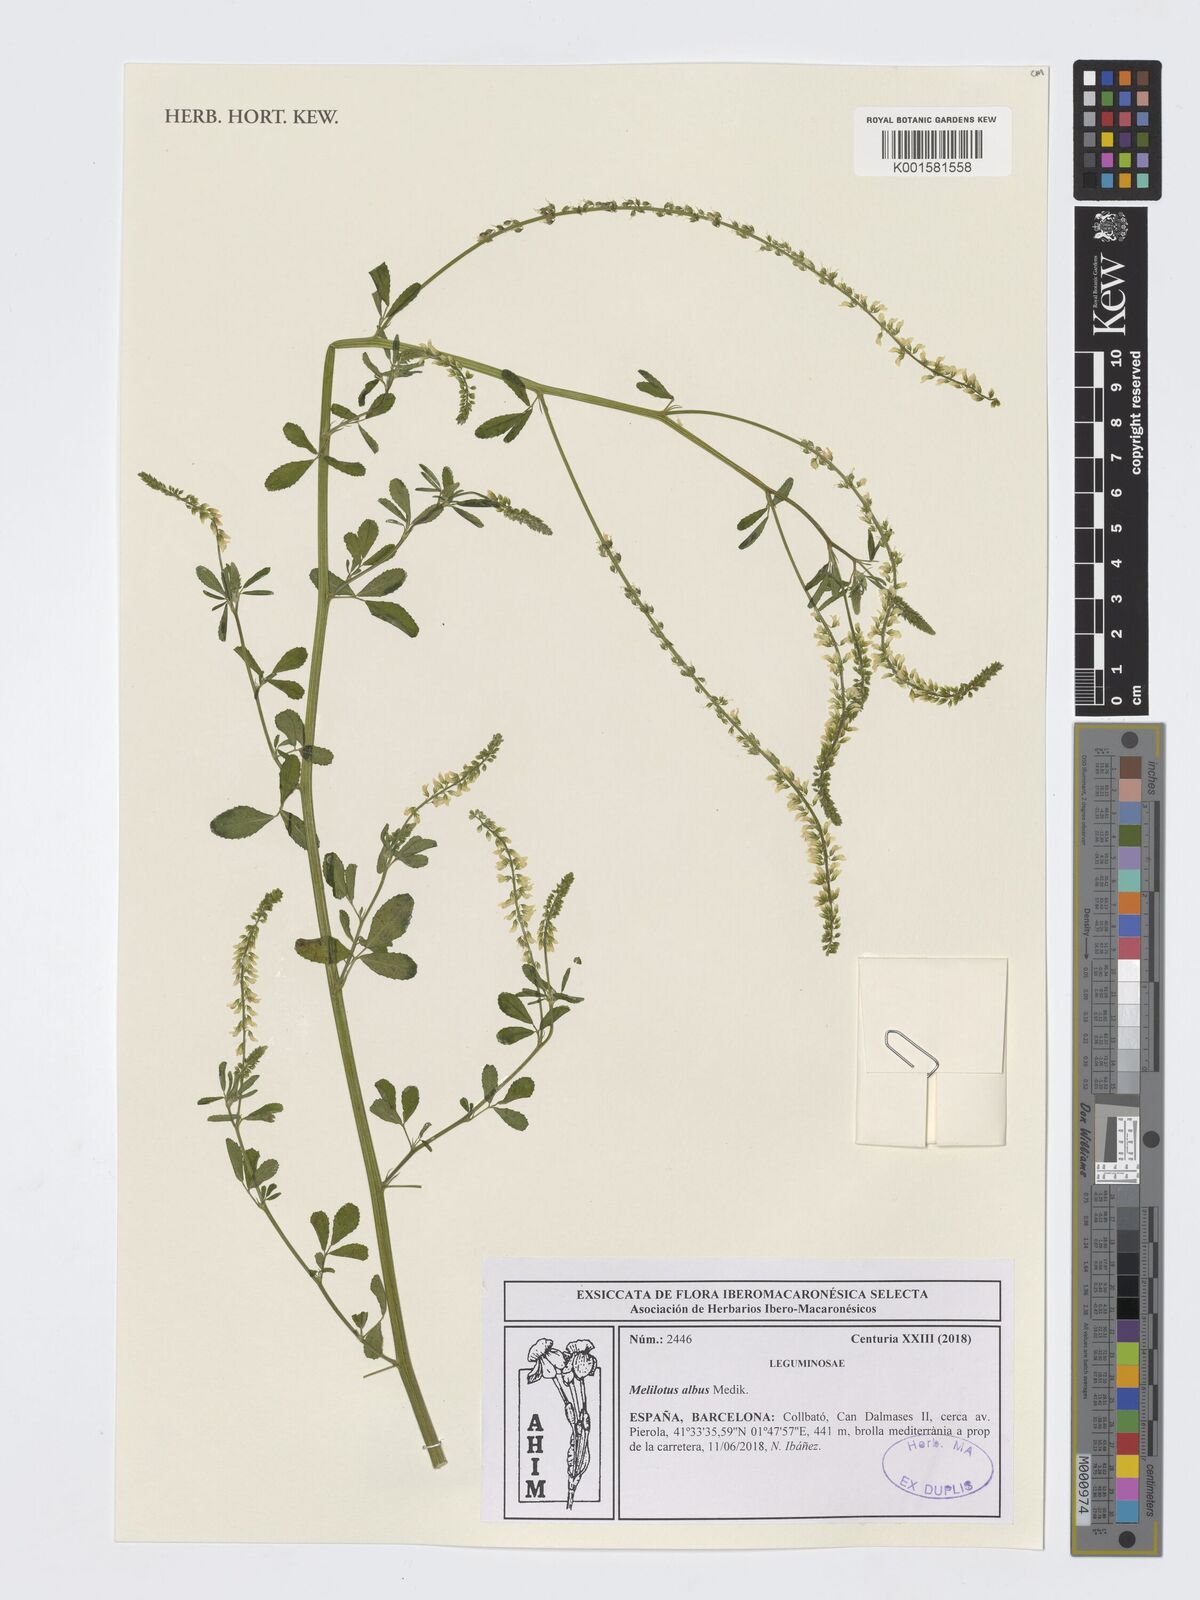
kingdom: Plantae
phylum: Tracheophyta
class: Magnoliopsida
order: Fabales
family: Fabaceae
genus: Melilotus
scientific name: Melilotus albus
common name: White melilot
